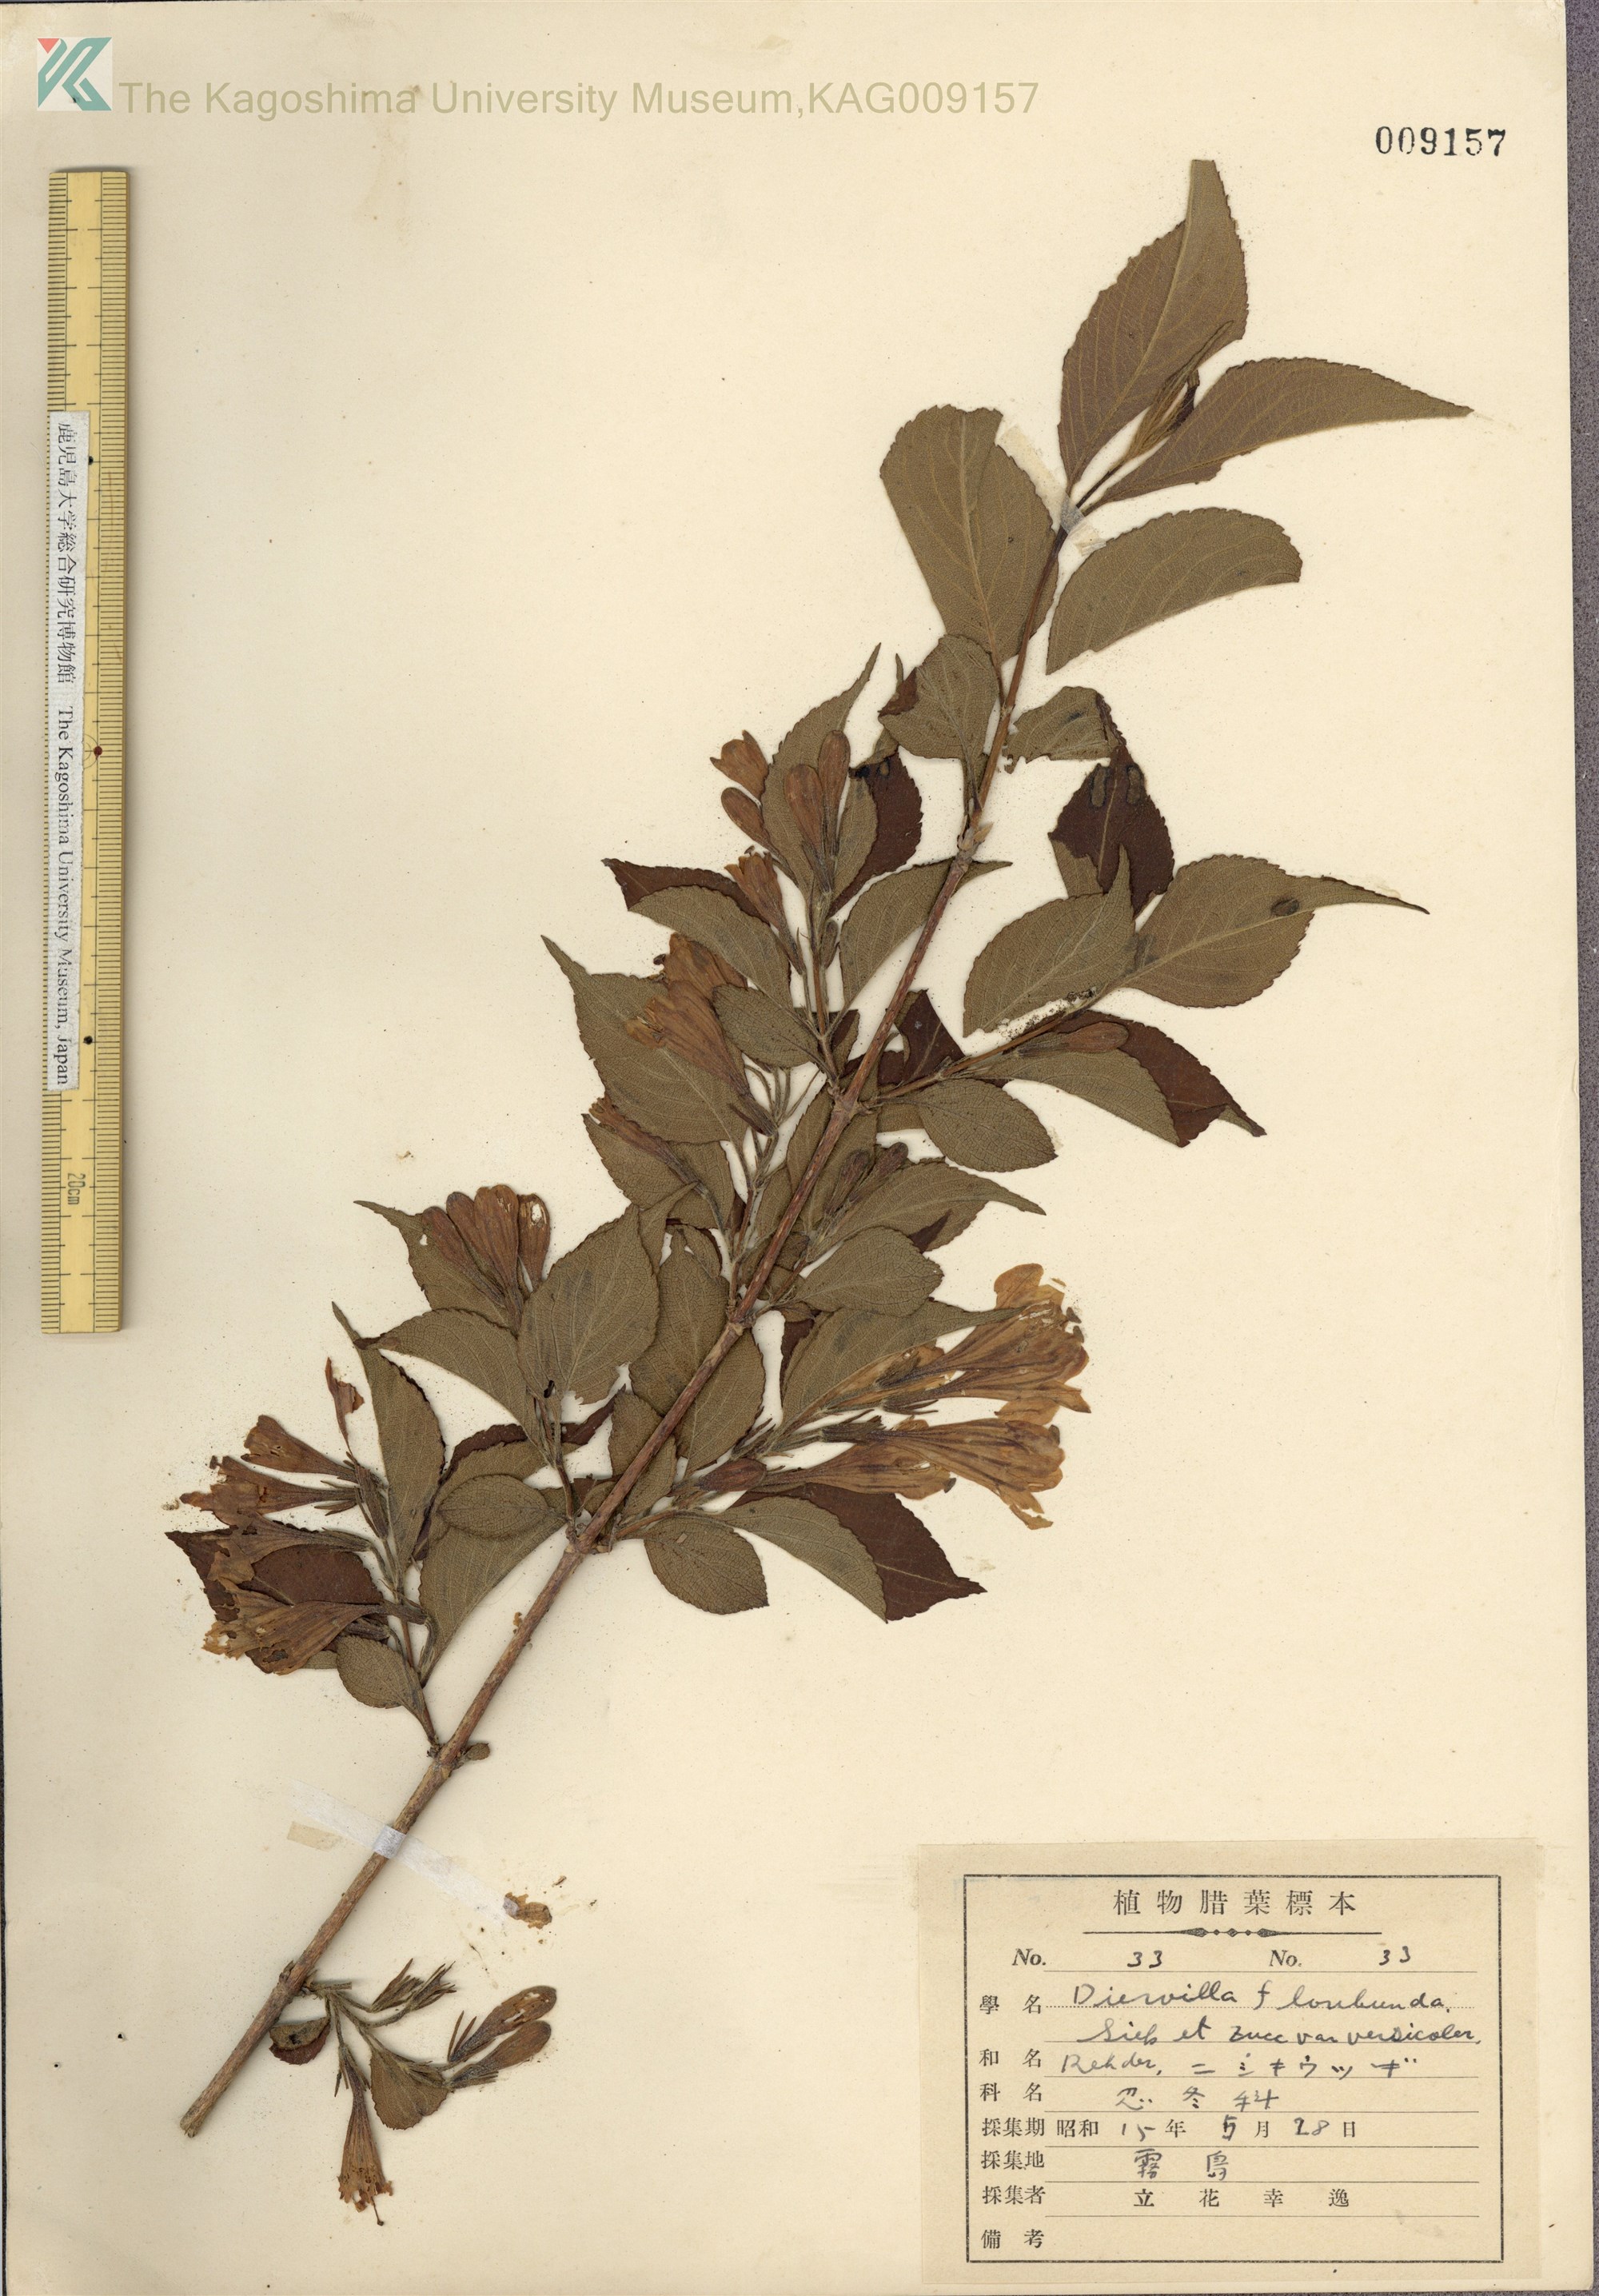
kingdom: Plantae
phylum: Tracheophyta
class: Magnoliopsida
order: Dipsacales
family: Caprifoliaceae
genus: Weigela
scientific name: Weigela japonica
